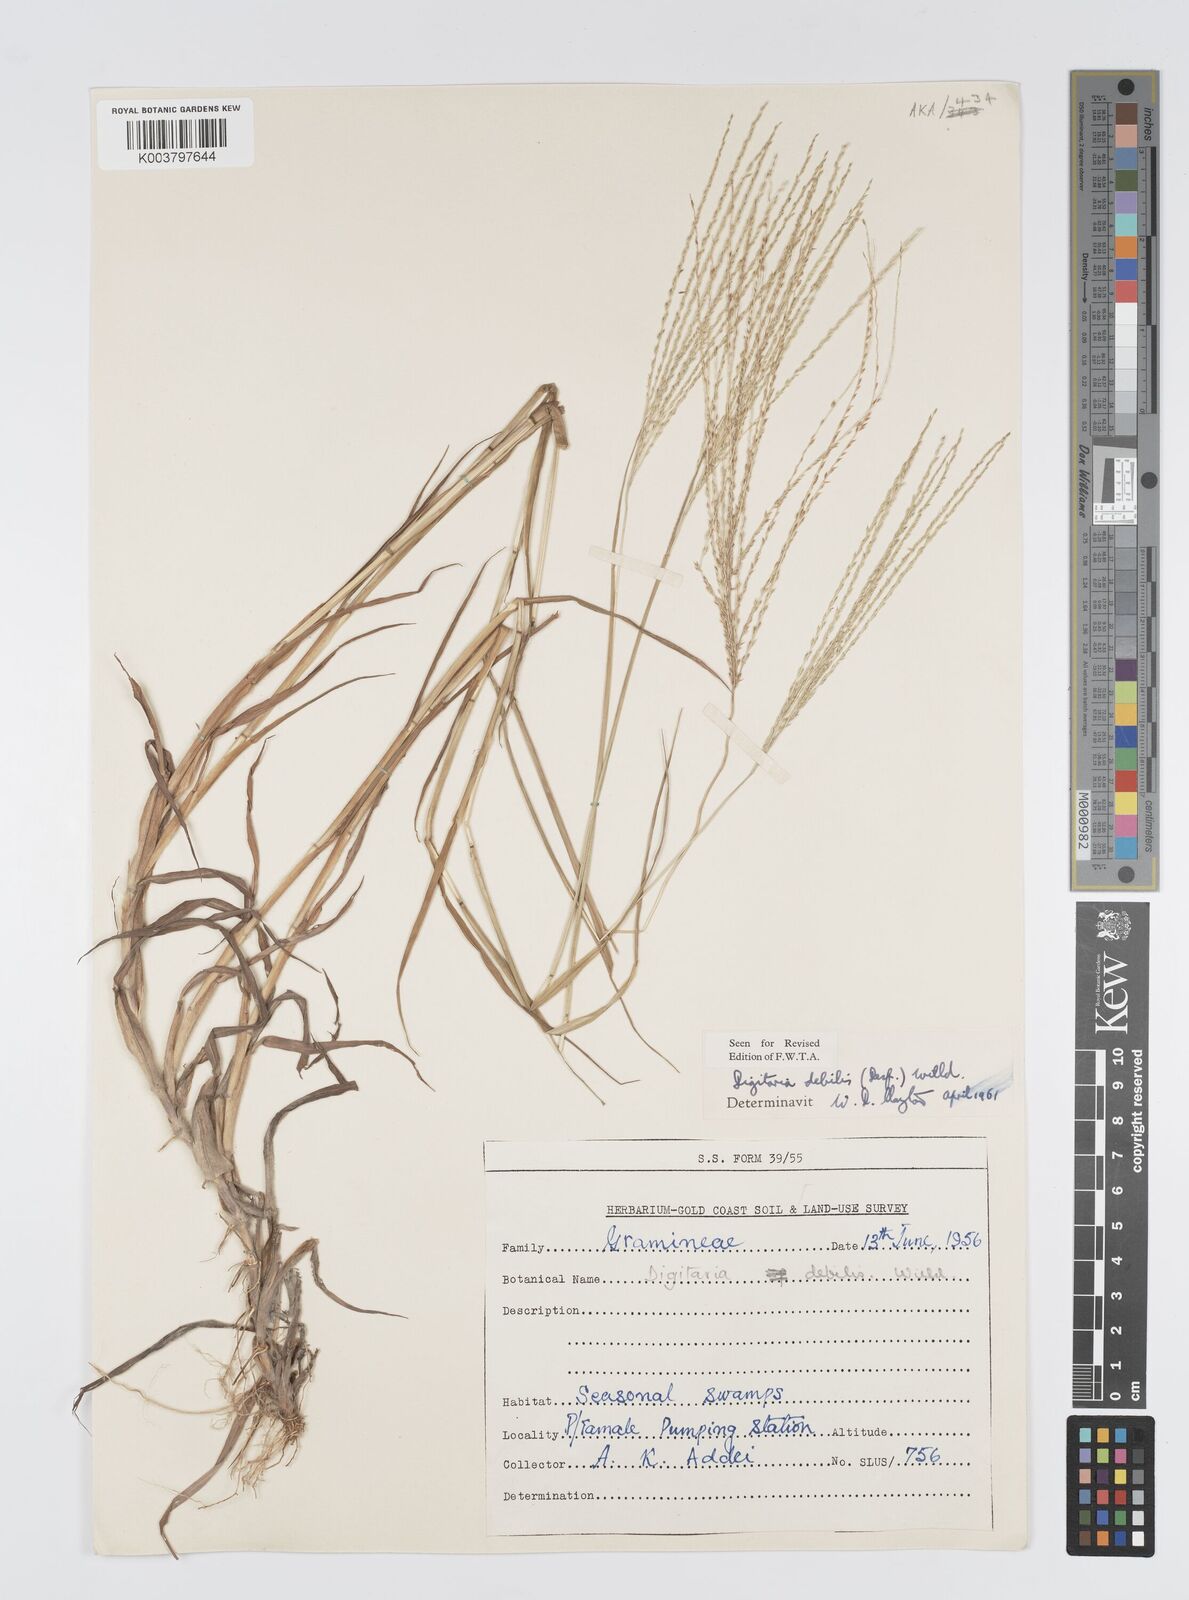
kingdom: Plantae
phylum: Tracheophyta
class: Liliopsida
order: Poales
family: Poaceae
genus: Digitaria
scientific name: Digitaria debilis
